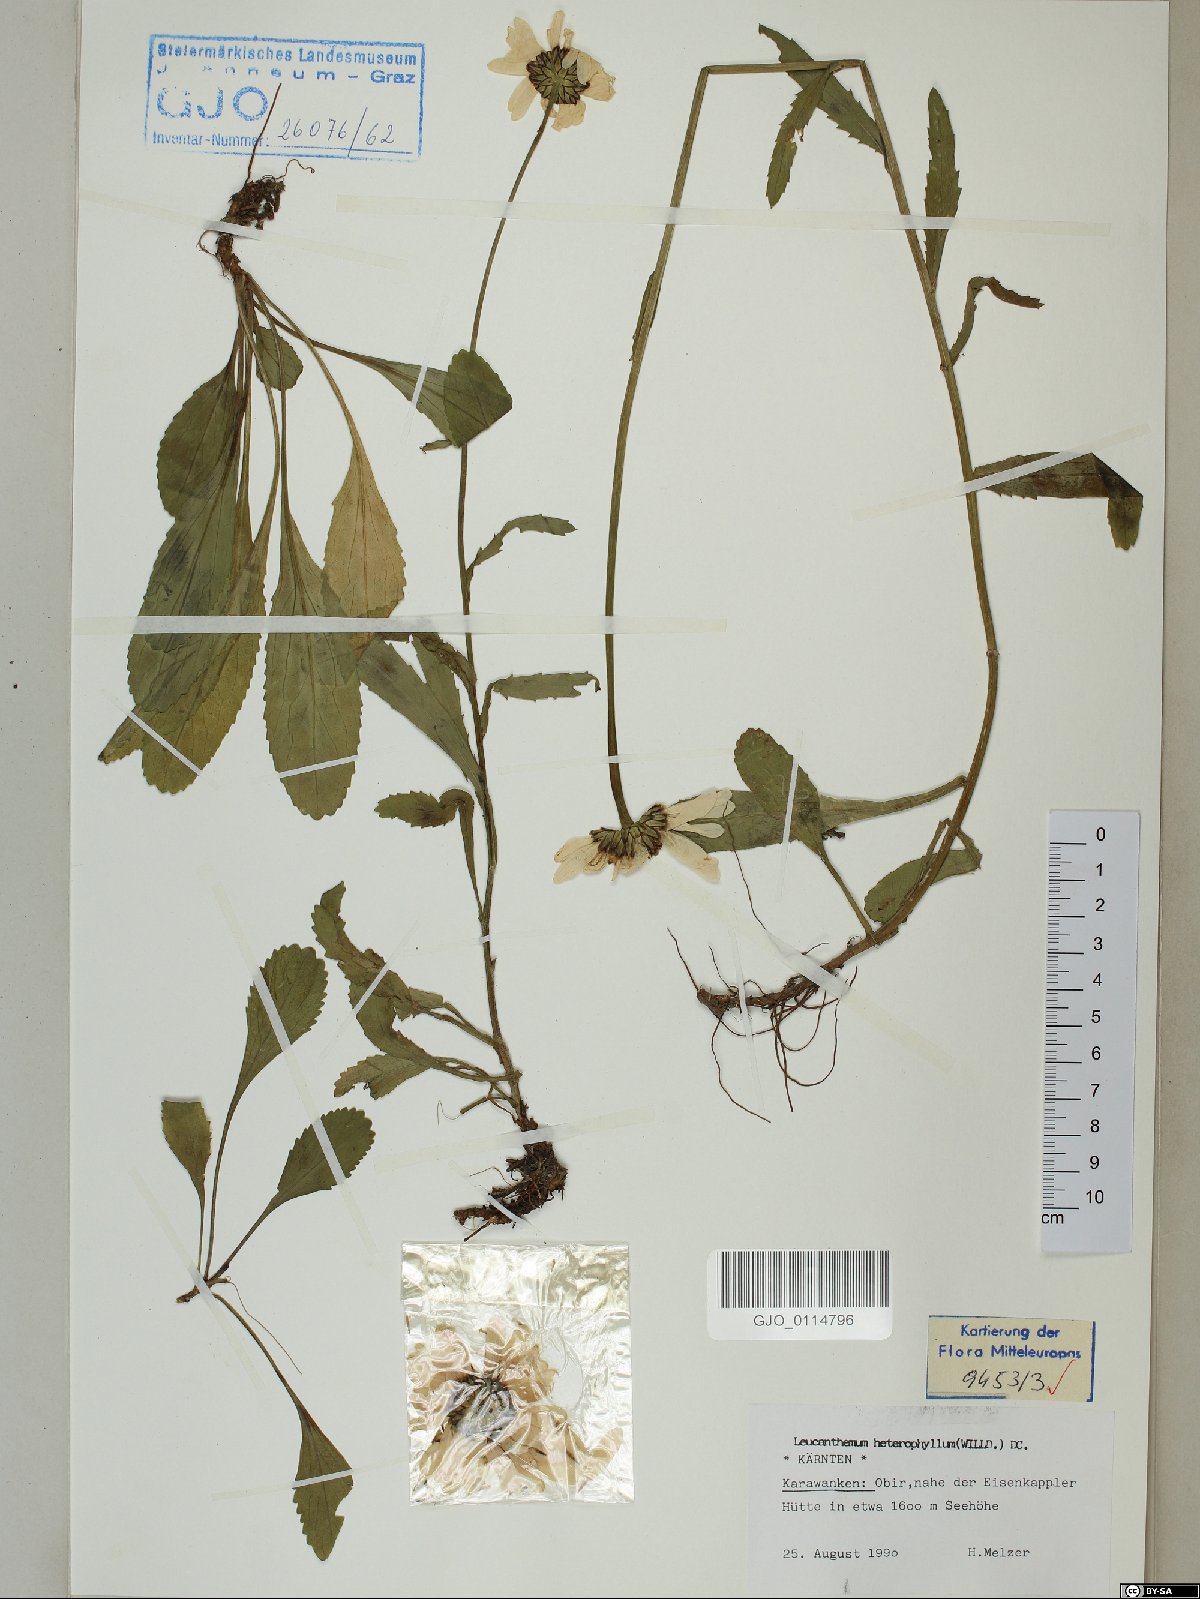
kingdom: Plantae
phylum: Tracheophyta
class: Magnoliopsida
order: Asterales
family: Asteraceae
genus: Leucanthemum
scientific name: Leucanthemum heterophyllum
